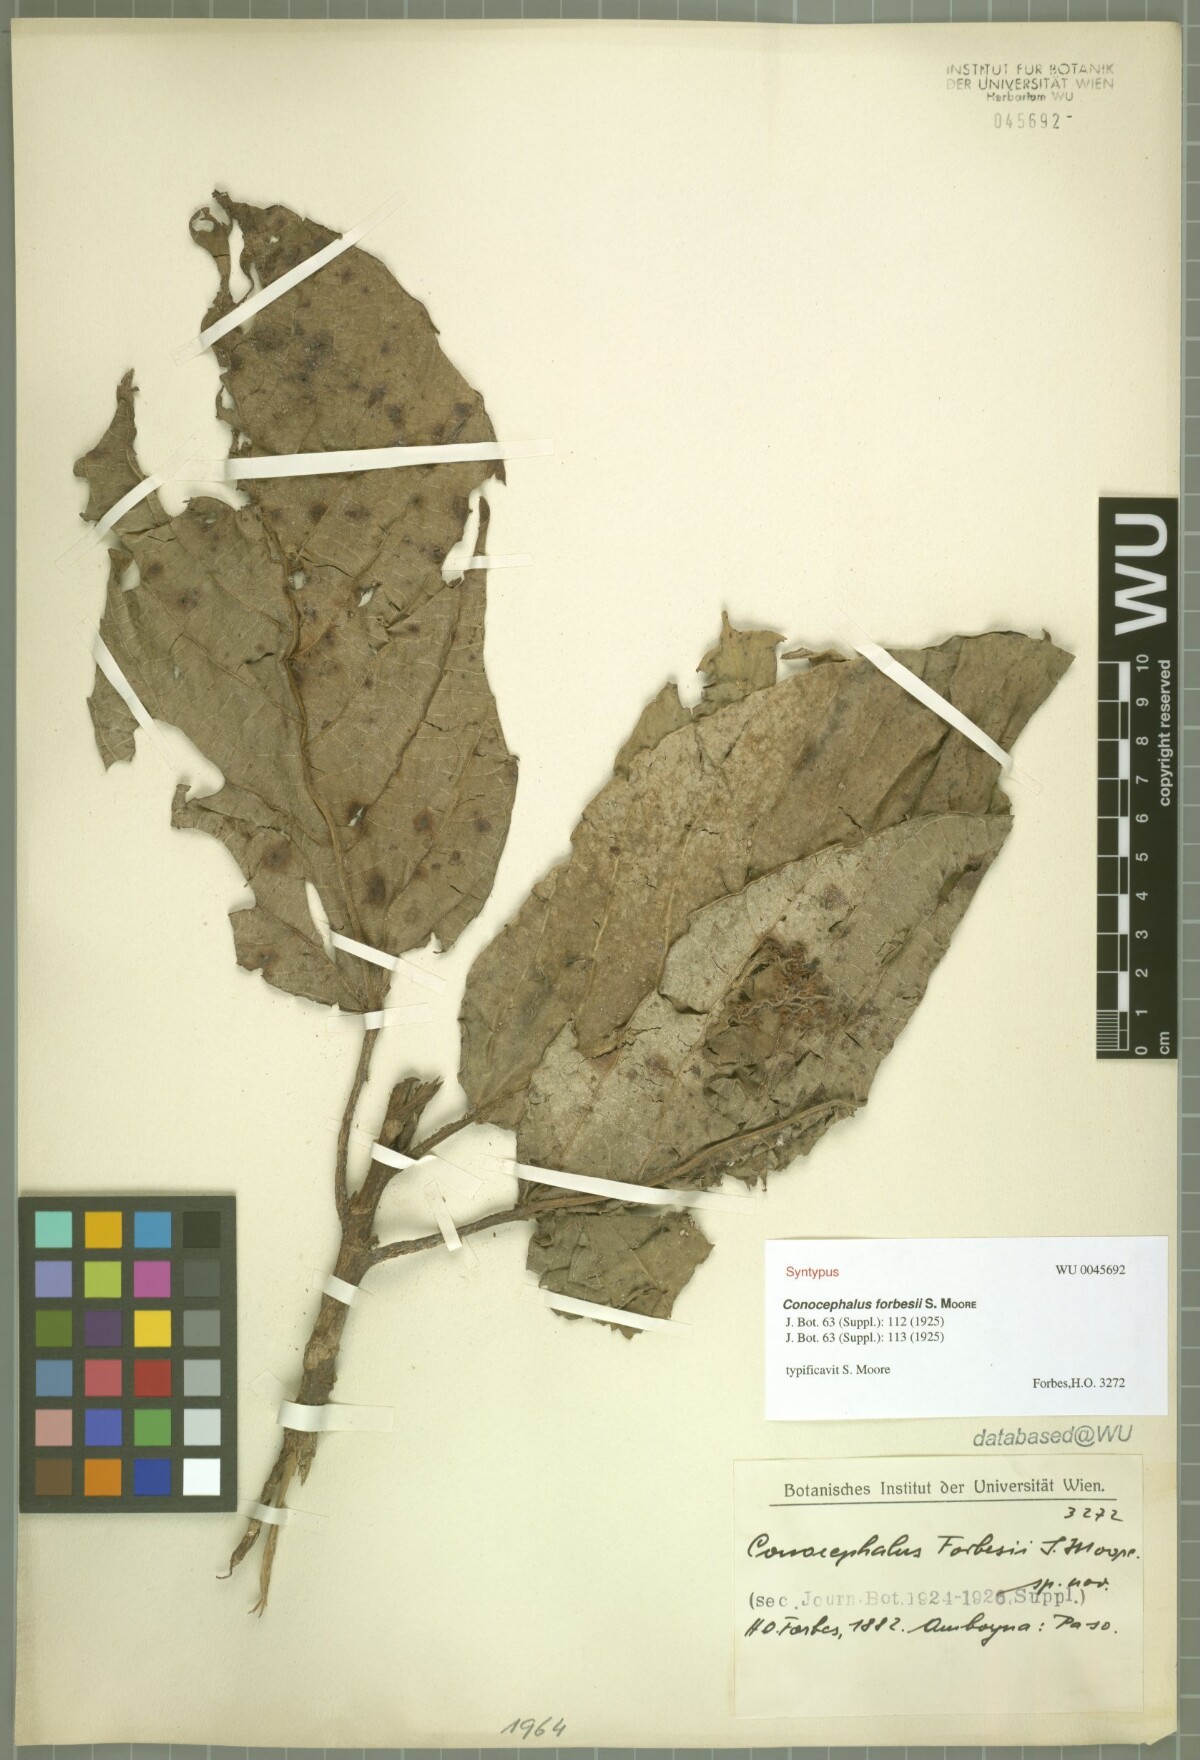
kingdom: Plantae
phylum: Tracheophyta
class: Magnoliopsida
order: Rosales
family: Urticaceae
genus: Poikilospermum
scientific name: Poikilospermum forbesii
